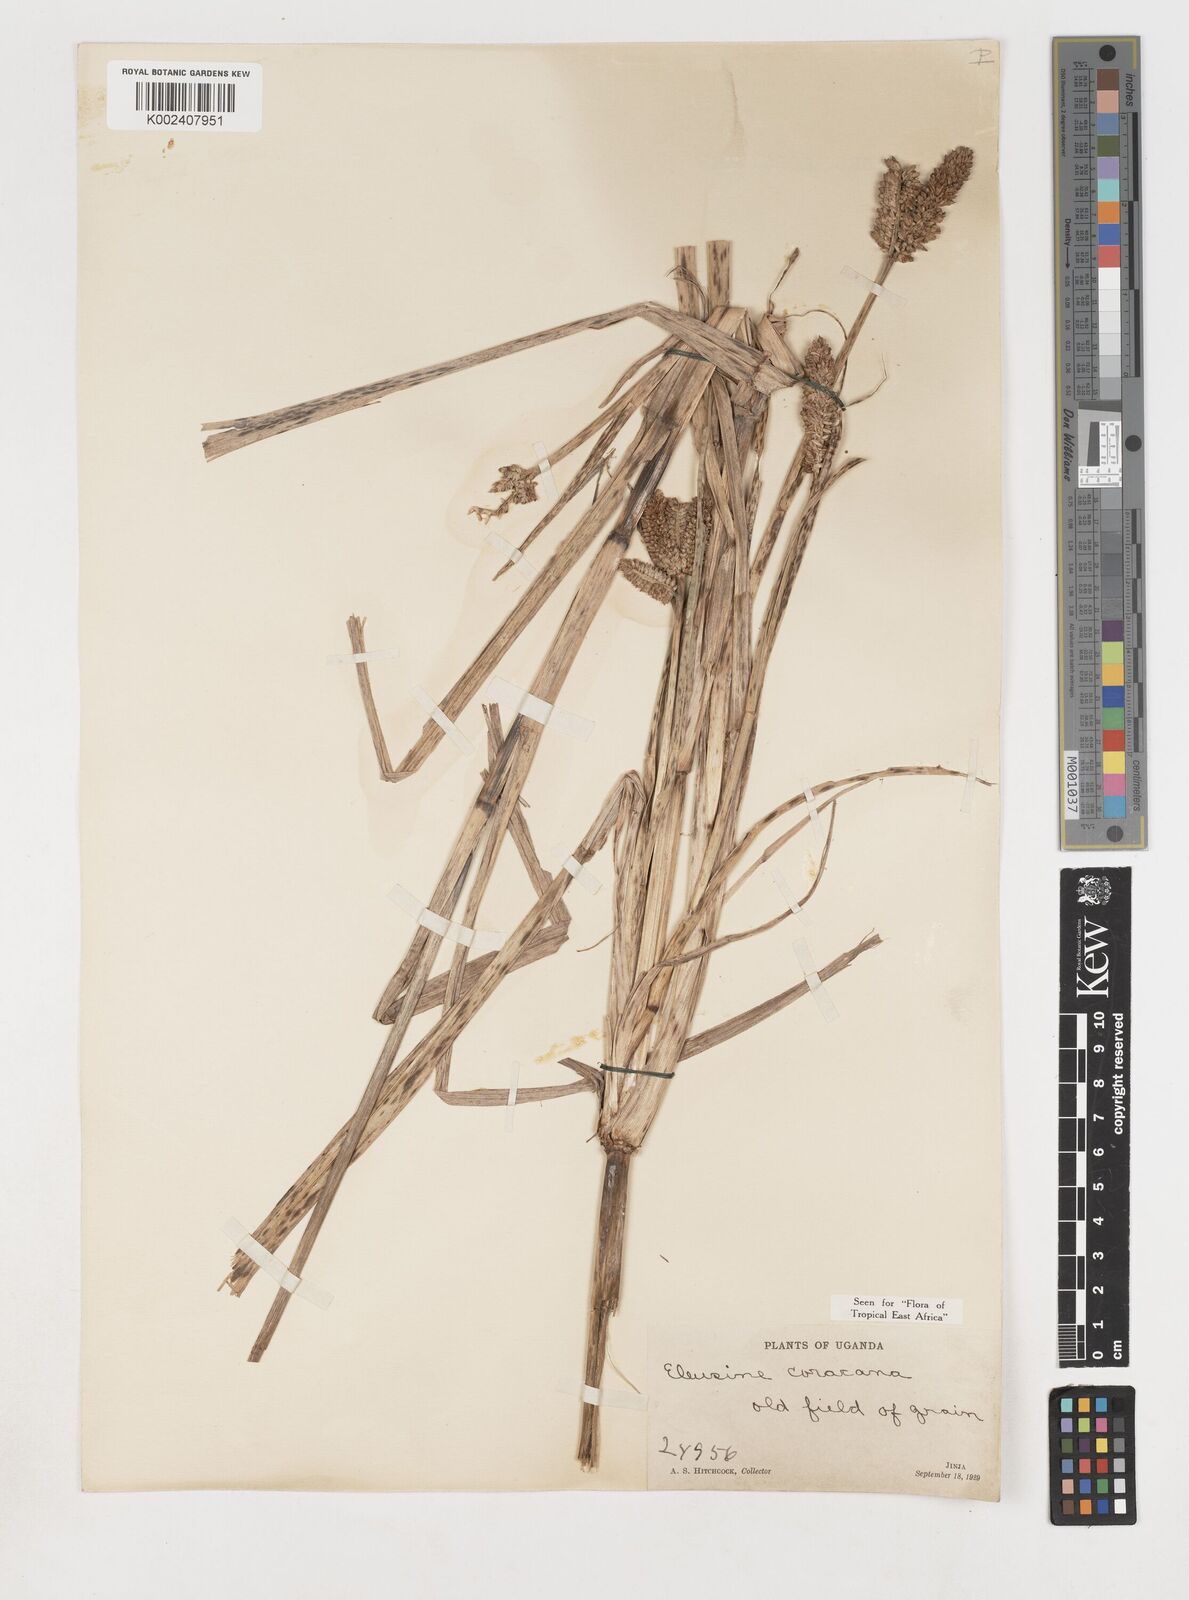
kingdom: Plantae
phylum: Tracheophyta
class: Liliopsida
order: Poales
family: Poaceae
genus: Eleusine
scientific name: Eleusine coracana
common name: Finger millet
